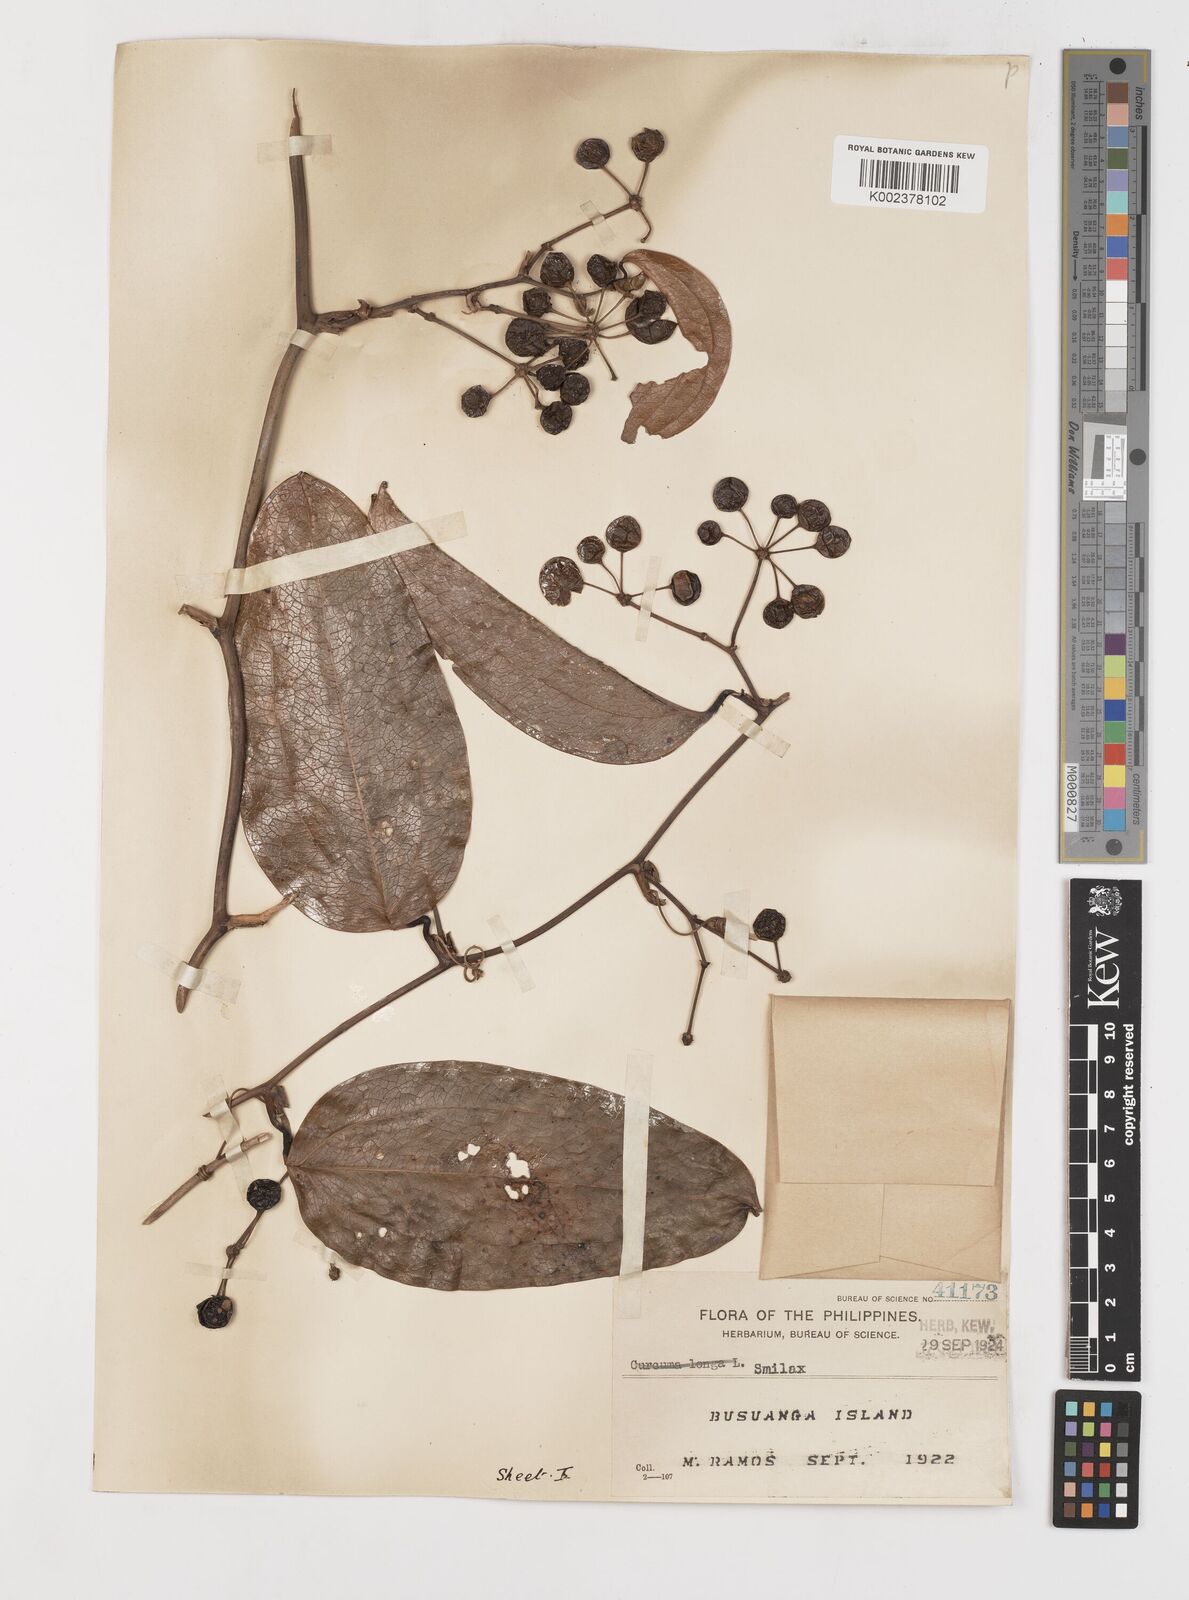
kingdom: Plantae
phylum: Tracheophyta
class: Liliopsida
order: Liliales
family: Smilacaceae
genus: Smilax
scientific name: Smilax
